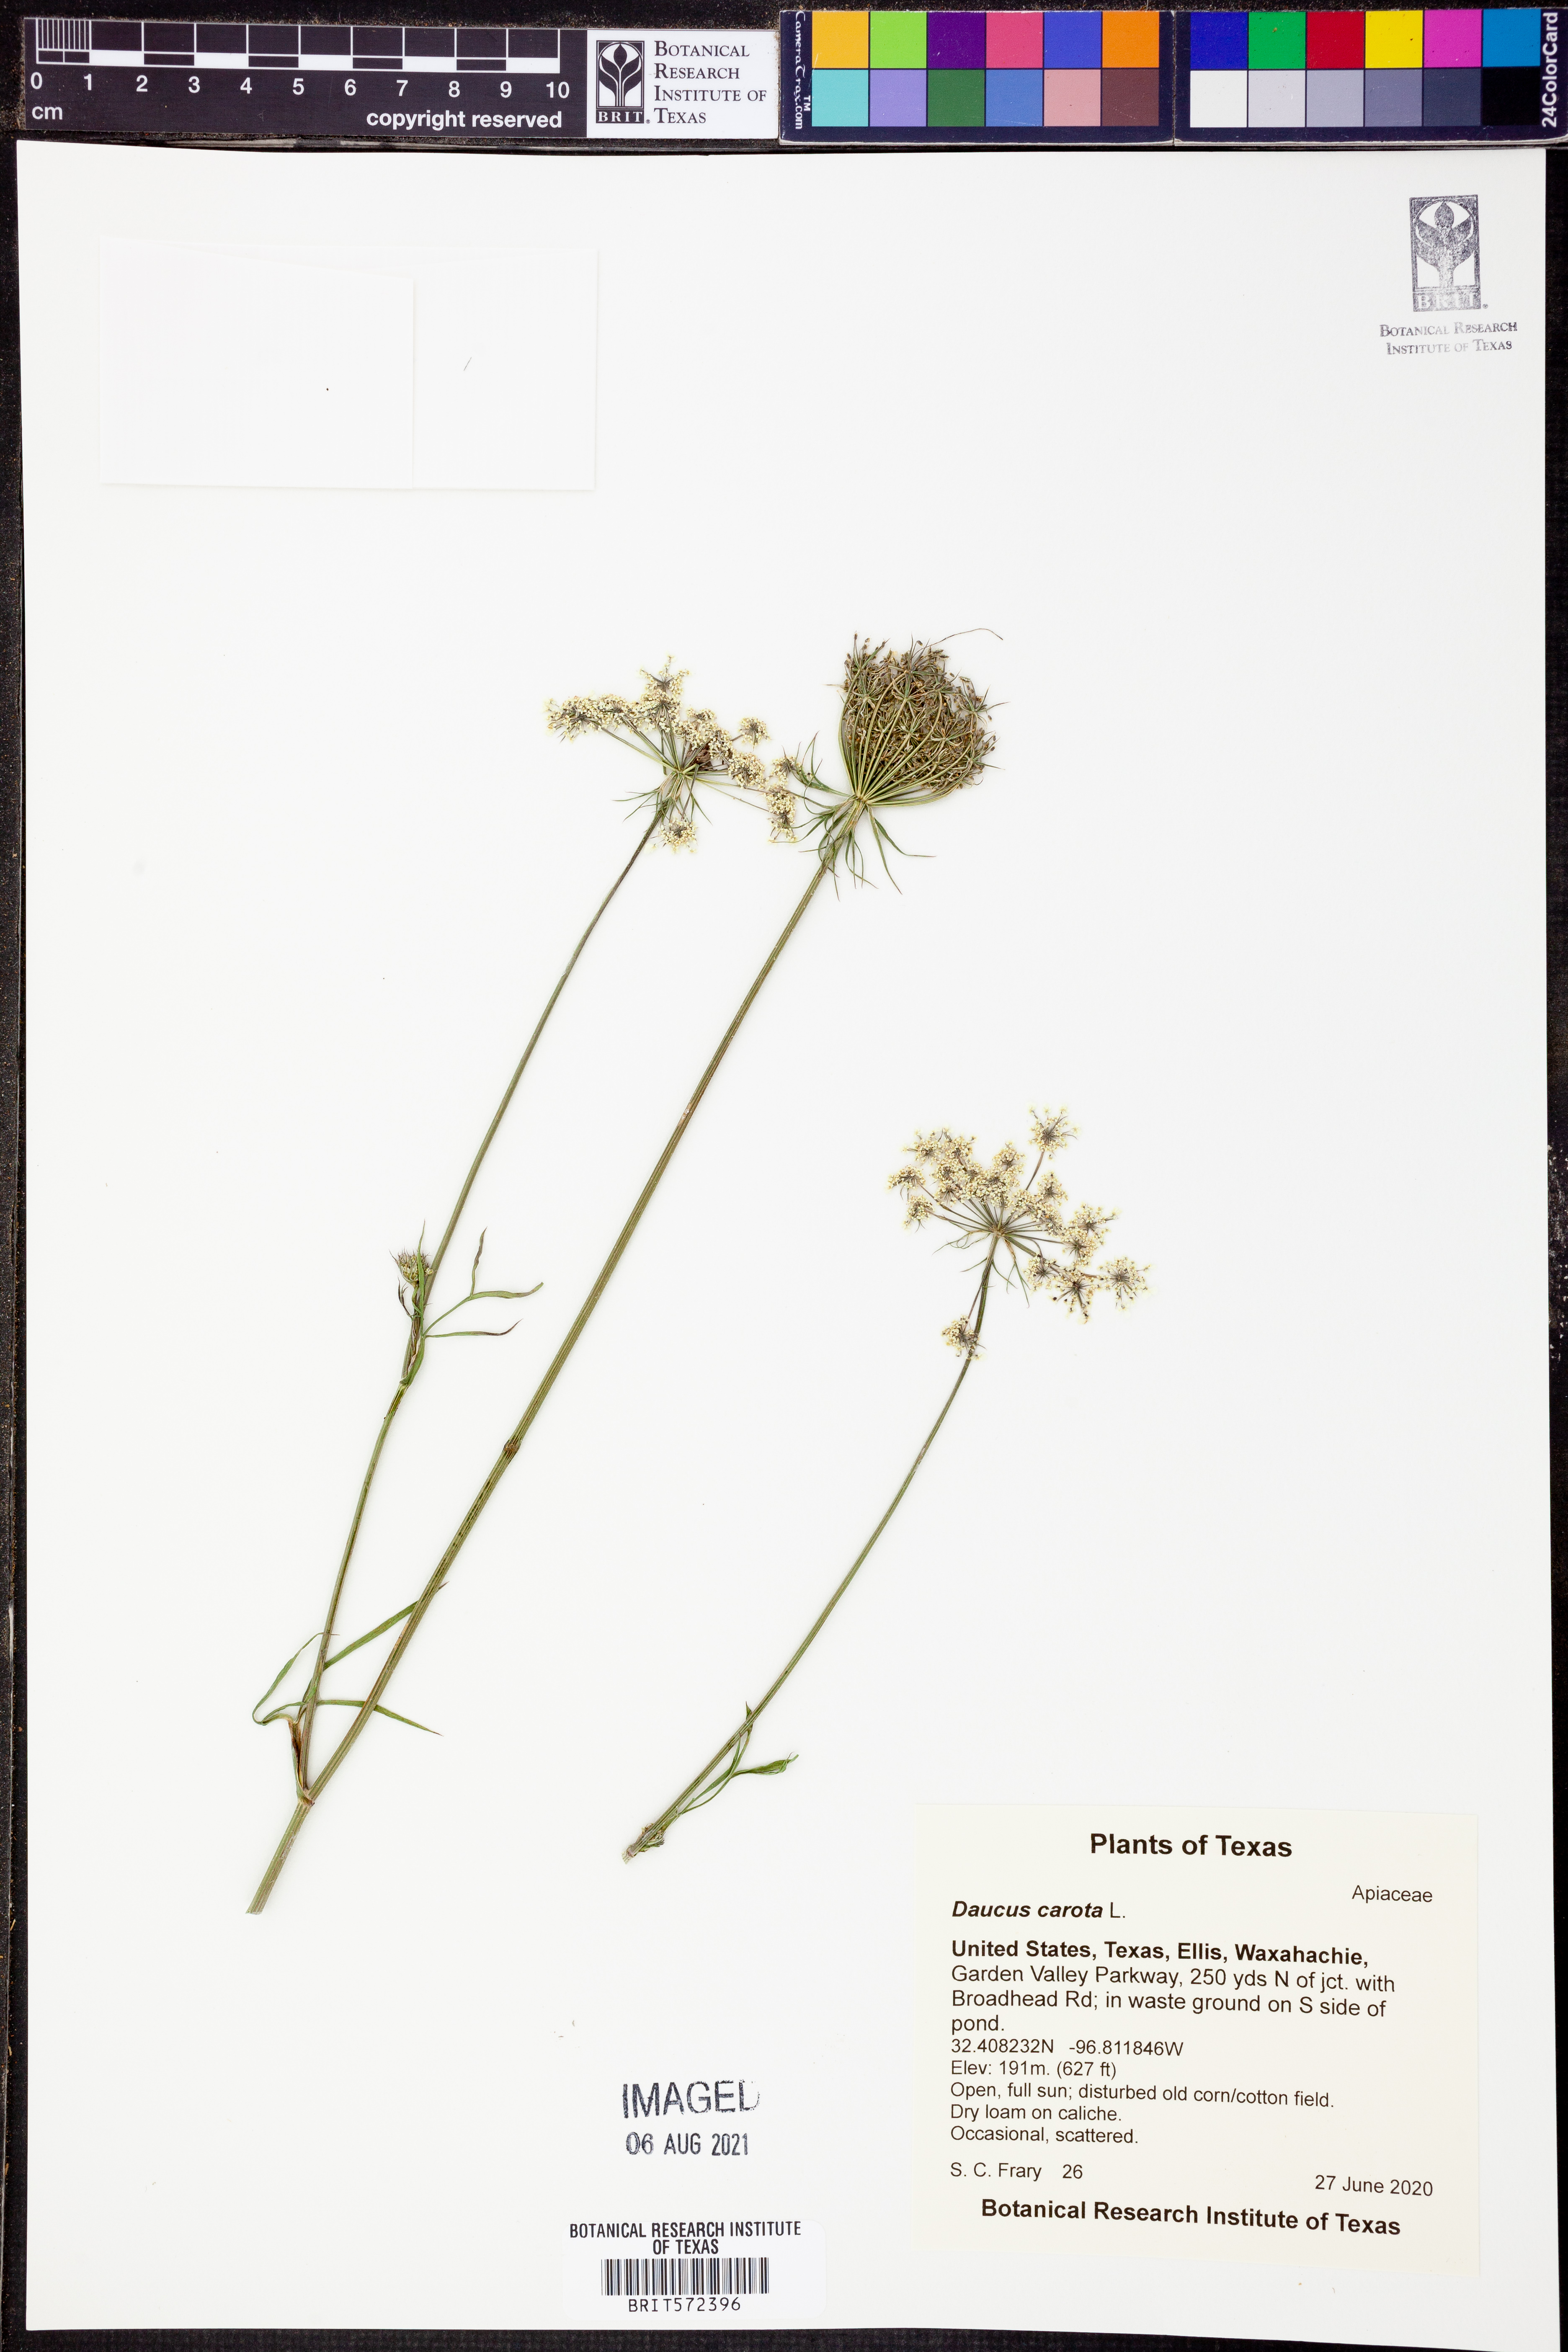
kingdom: Plantae
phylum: Tracheophyta
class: Magnoliopsida
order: Apiales
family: Apiaceae
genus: Daucus
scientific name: Daucus carota
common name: Wild carrot
